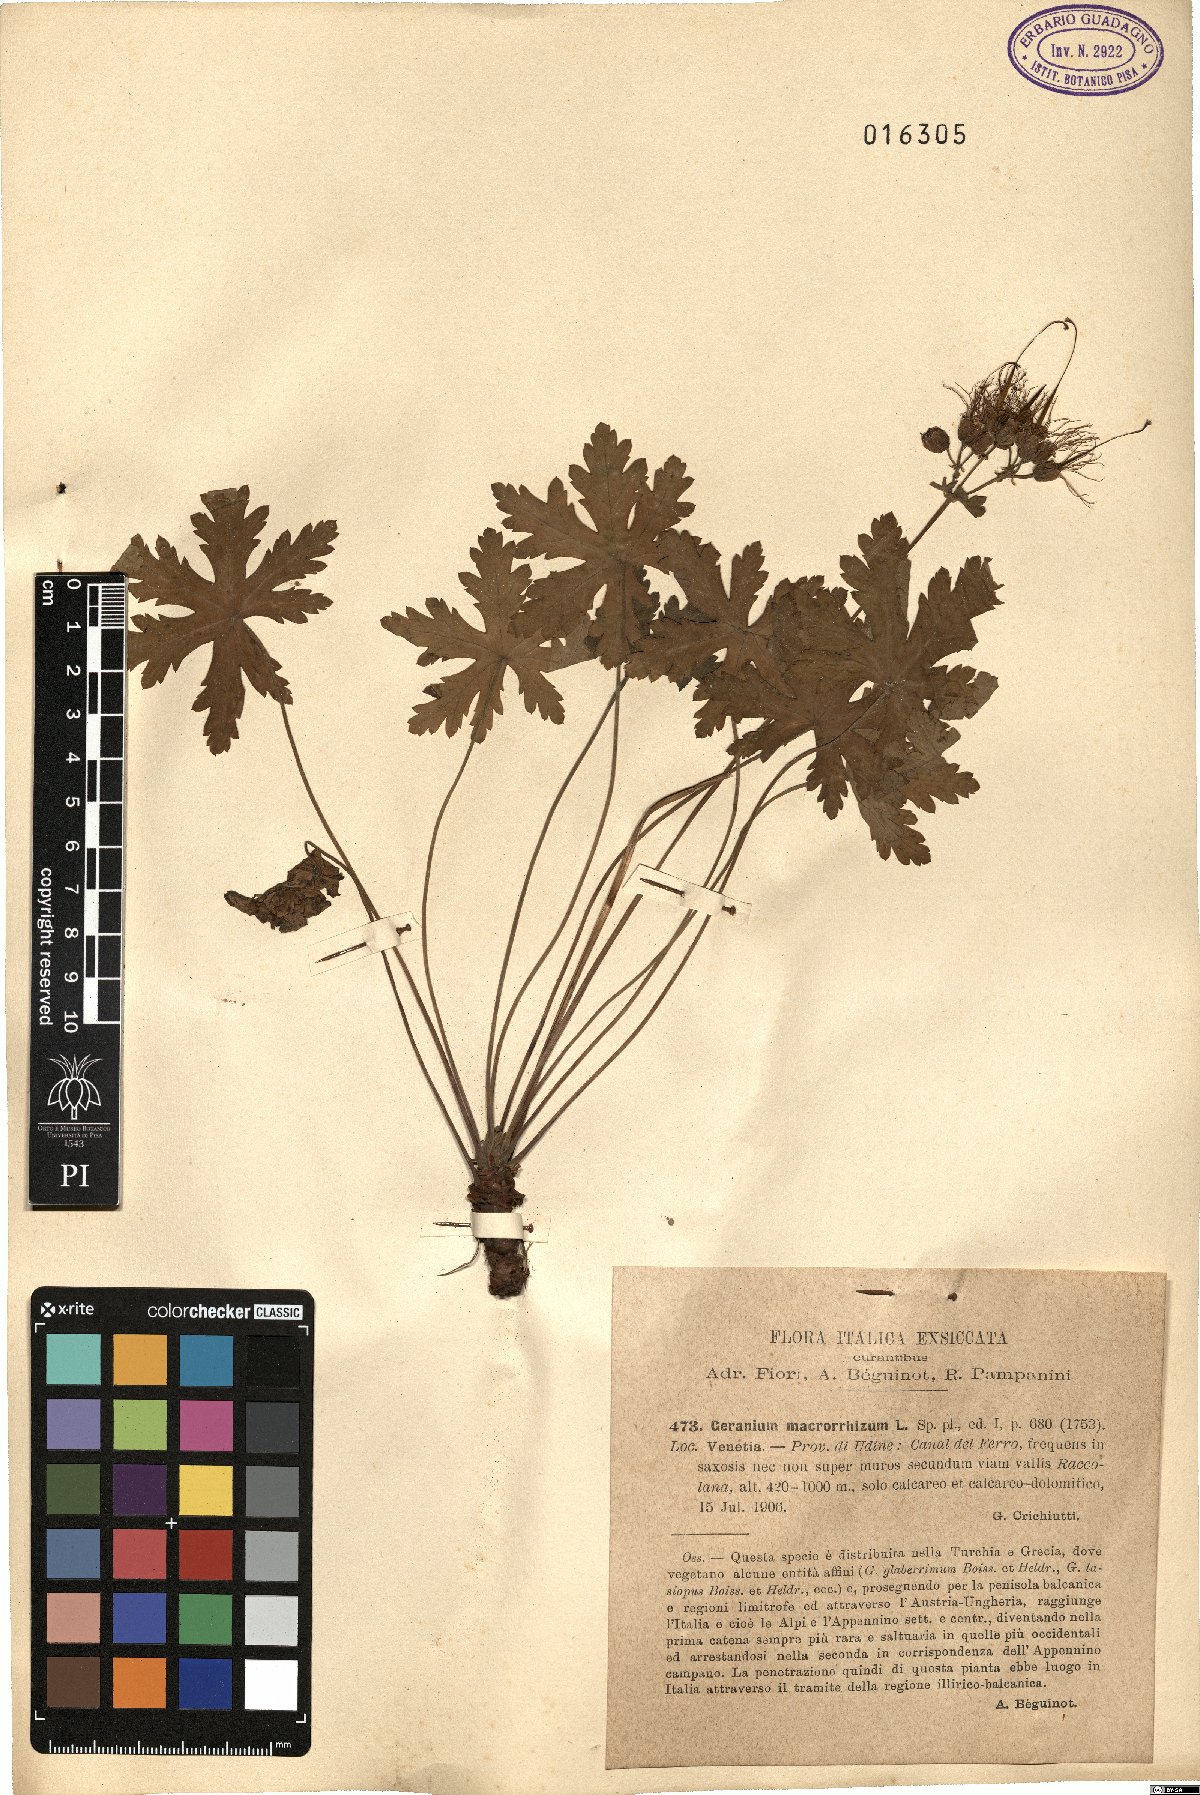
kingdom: Plantae
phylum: Tracheophyta
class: Magnoliopsida
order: Geraniales
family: Geraniaceae
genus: Geranium
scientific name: Geranium macrorrhizum
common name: Rock crane's-bill
